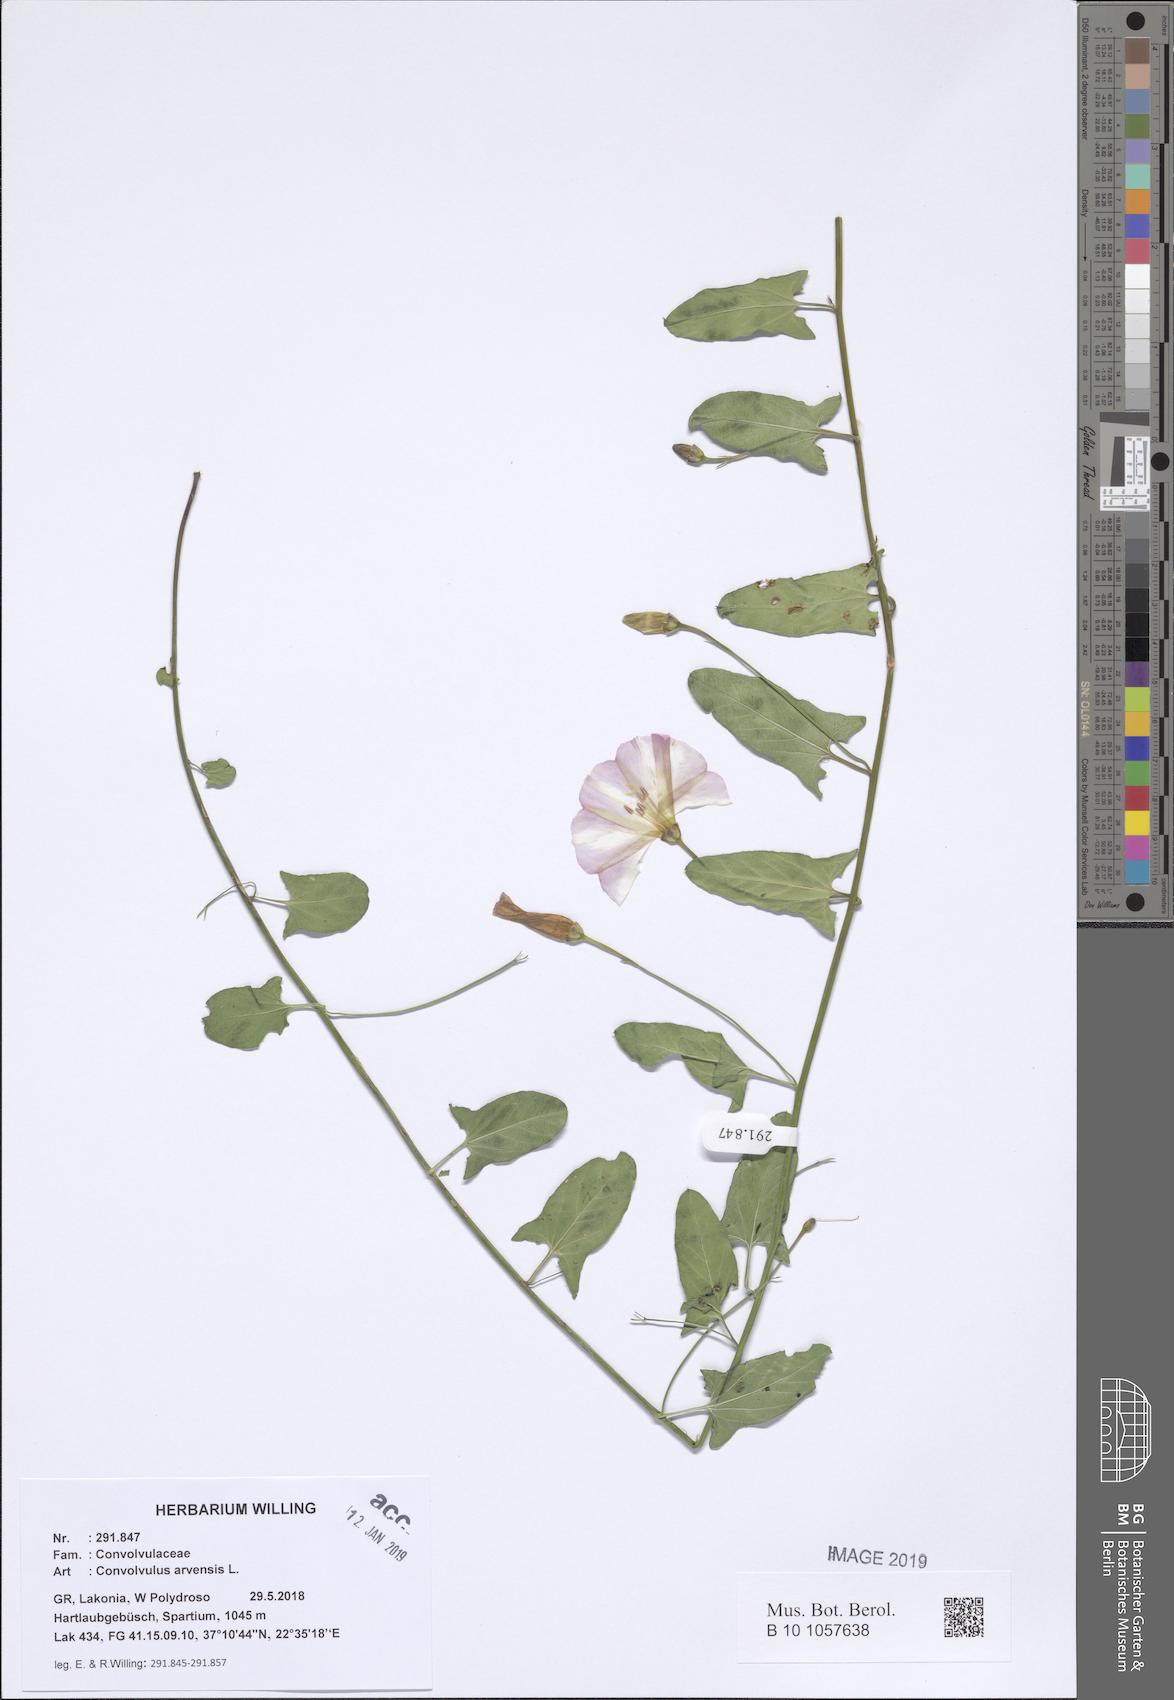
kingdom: Plantae
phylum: Tracheophyta
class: Magnoliopsida
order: Solanales
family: Convolvulaceae
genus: Convolvulus
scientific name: Convolvulus arvensis
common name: Field bindweed
